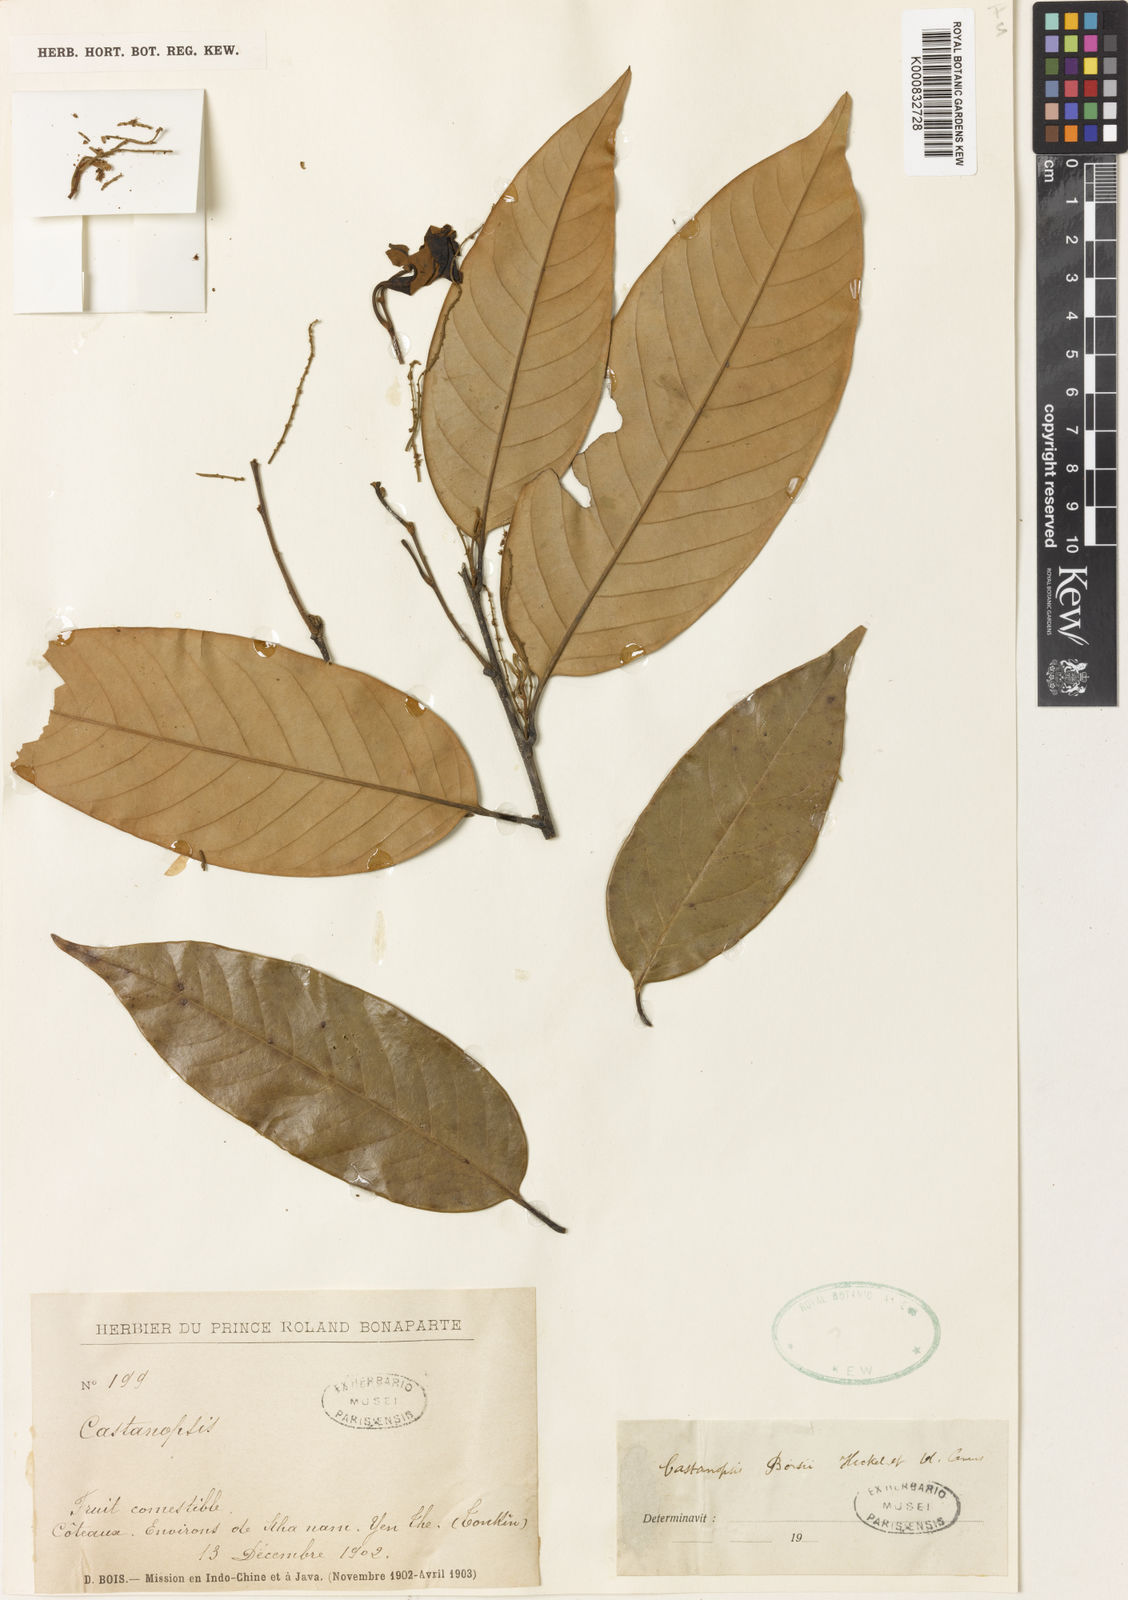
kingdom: Plantae
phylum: Tracheophyta
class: Magnoliopsida
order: Fagales
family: Fagaceae
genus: Castanopsis
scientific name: Castanopsis boisii
